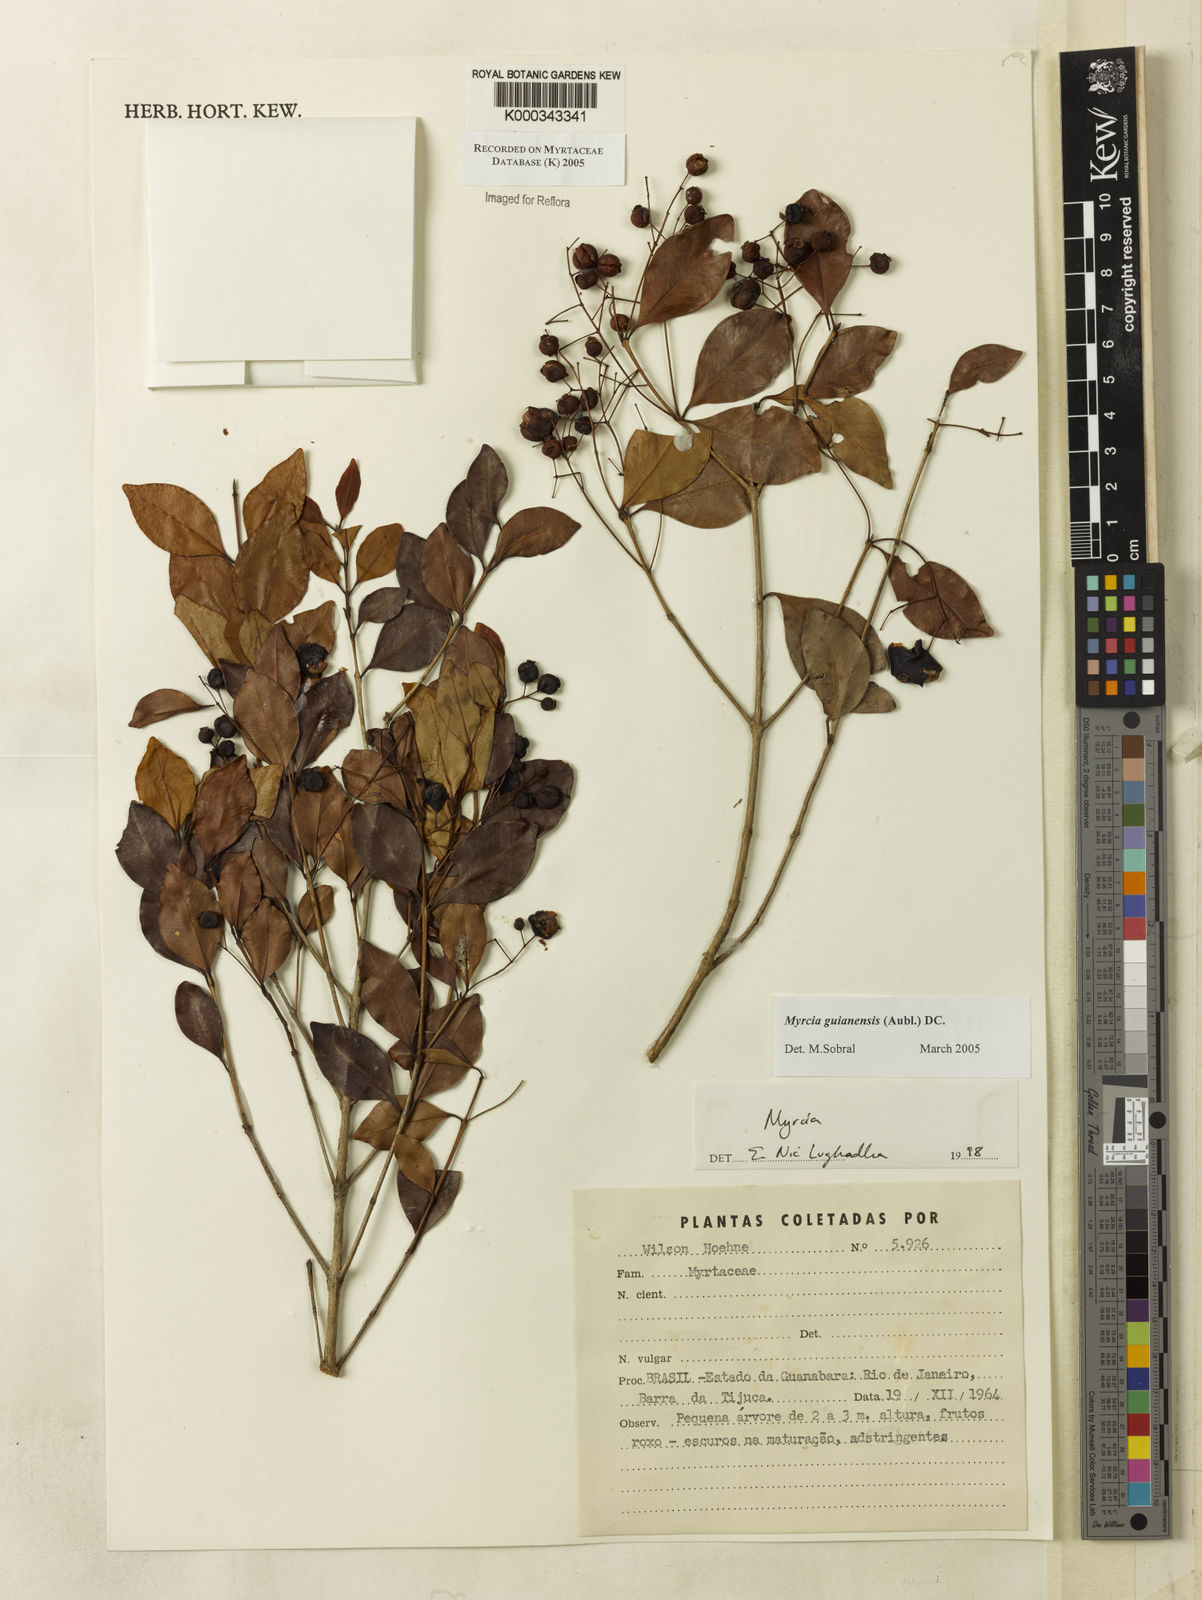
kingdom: Plantae
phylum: Tracheophyta
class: Magnoliopsida
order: Myrtales
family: Myrtaceae
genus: Myrcia
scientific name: Myrcia guianensis
